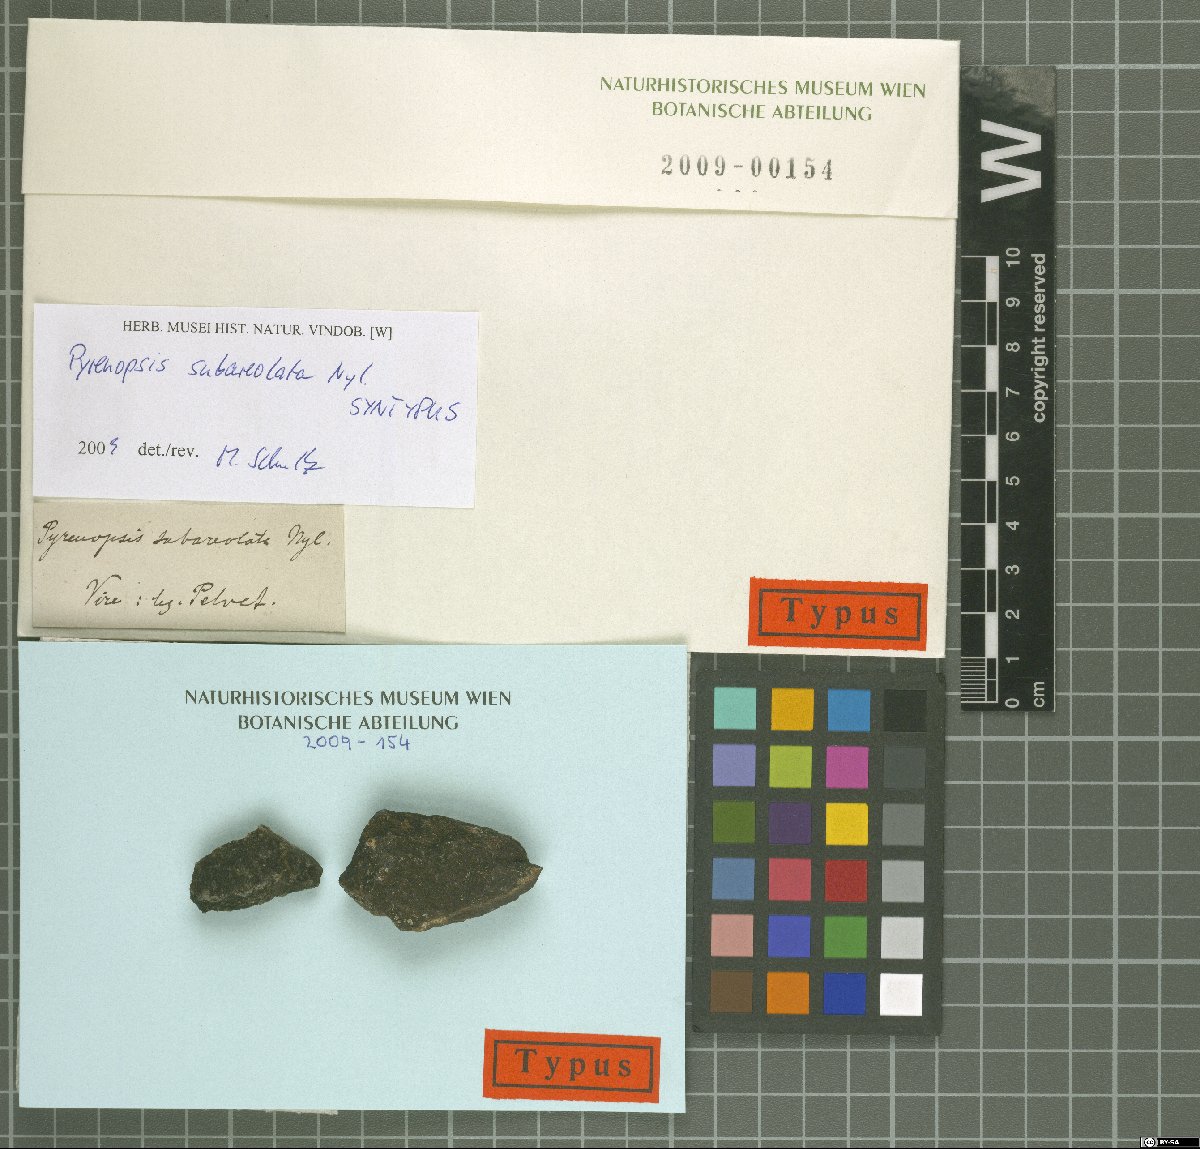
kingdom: Fungi
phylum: Ascomycota
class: Lichinomycetes
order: Lichinales
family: Lichinaceae
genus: Pyrenopsis
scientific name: Pyrenopsis subareolata
